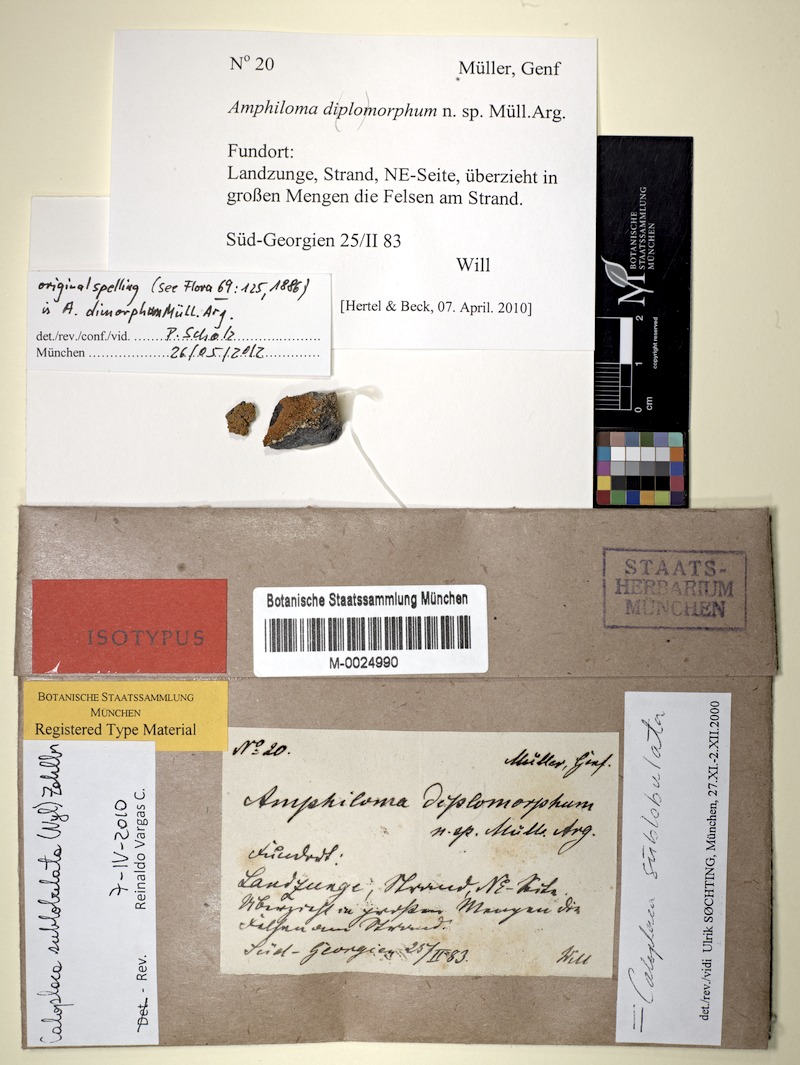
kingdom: Fungi
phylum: Ascomycota
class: Lecanoromycetes
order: Teloschistales
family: Teloschistaceae
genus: Gondwania
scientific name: Gondwania sublobulata
